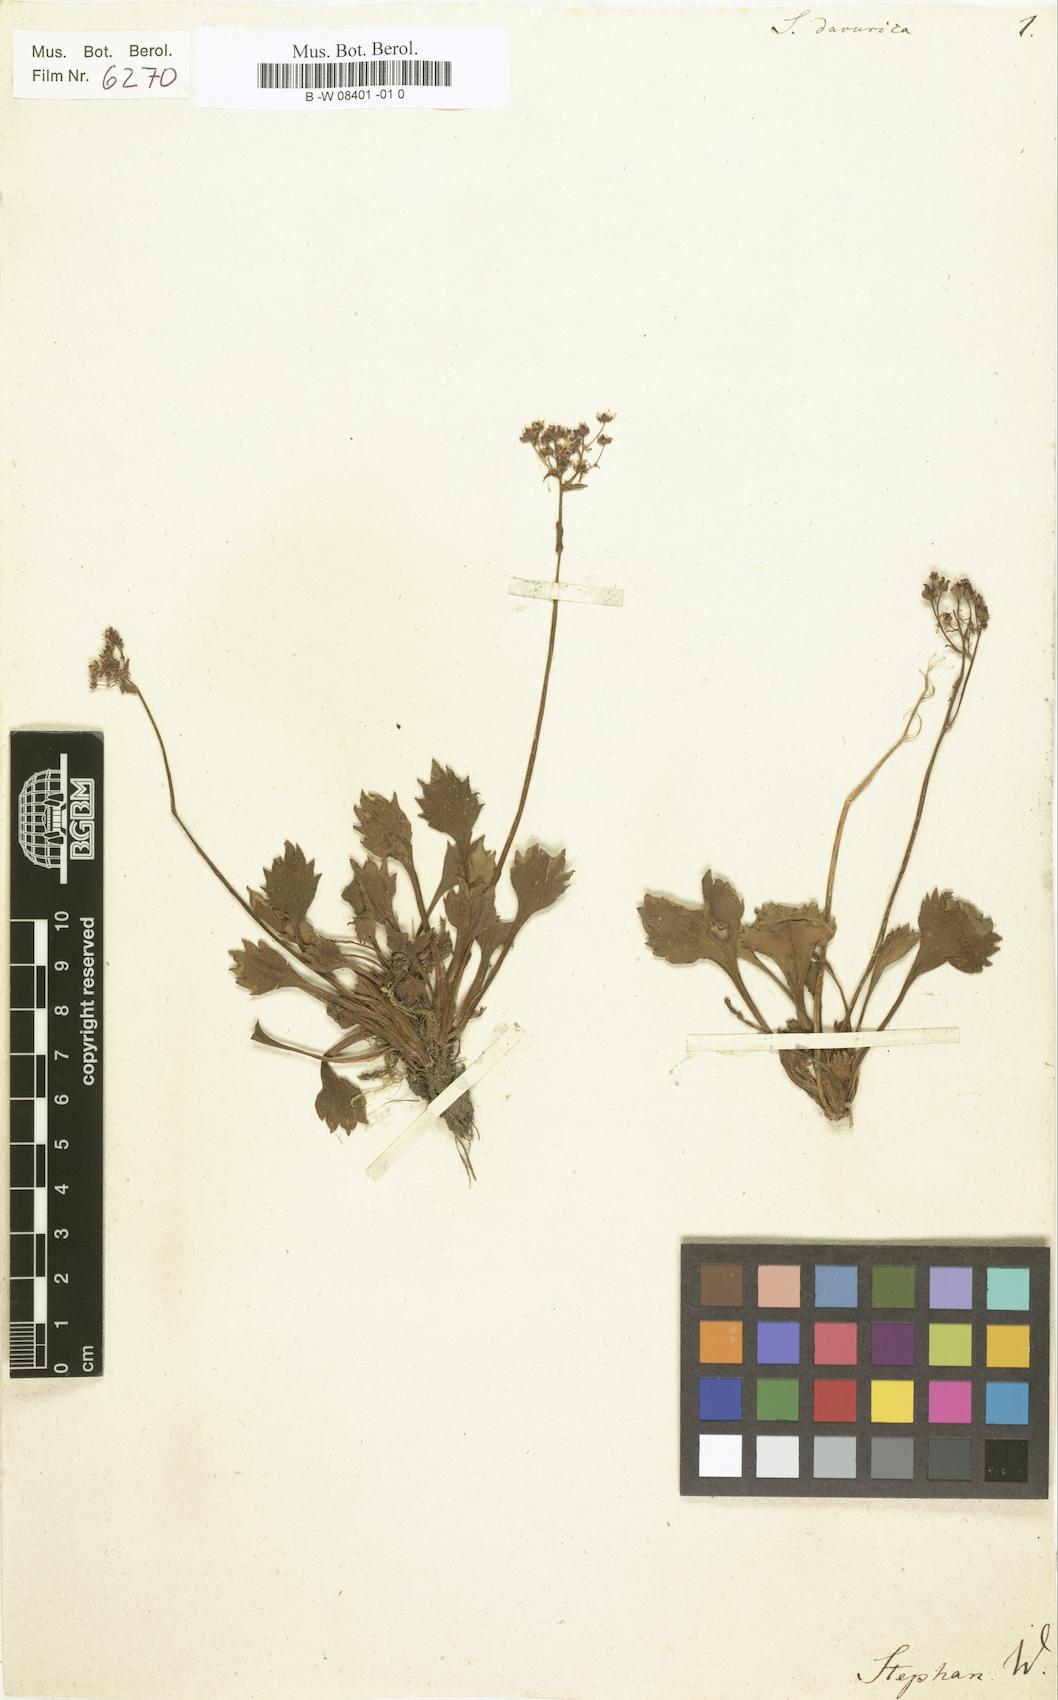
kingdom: Plantae
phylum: Tracheophyta
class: Magnoliopsida
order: Saxifragales
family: Saxifragaceae
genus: Micranthes
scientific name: Micranthes
